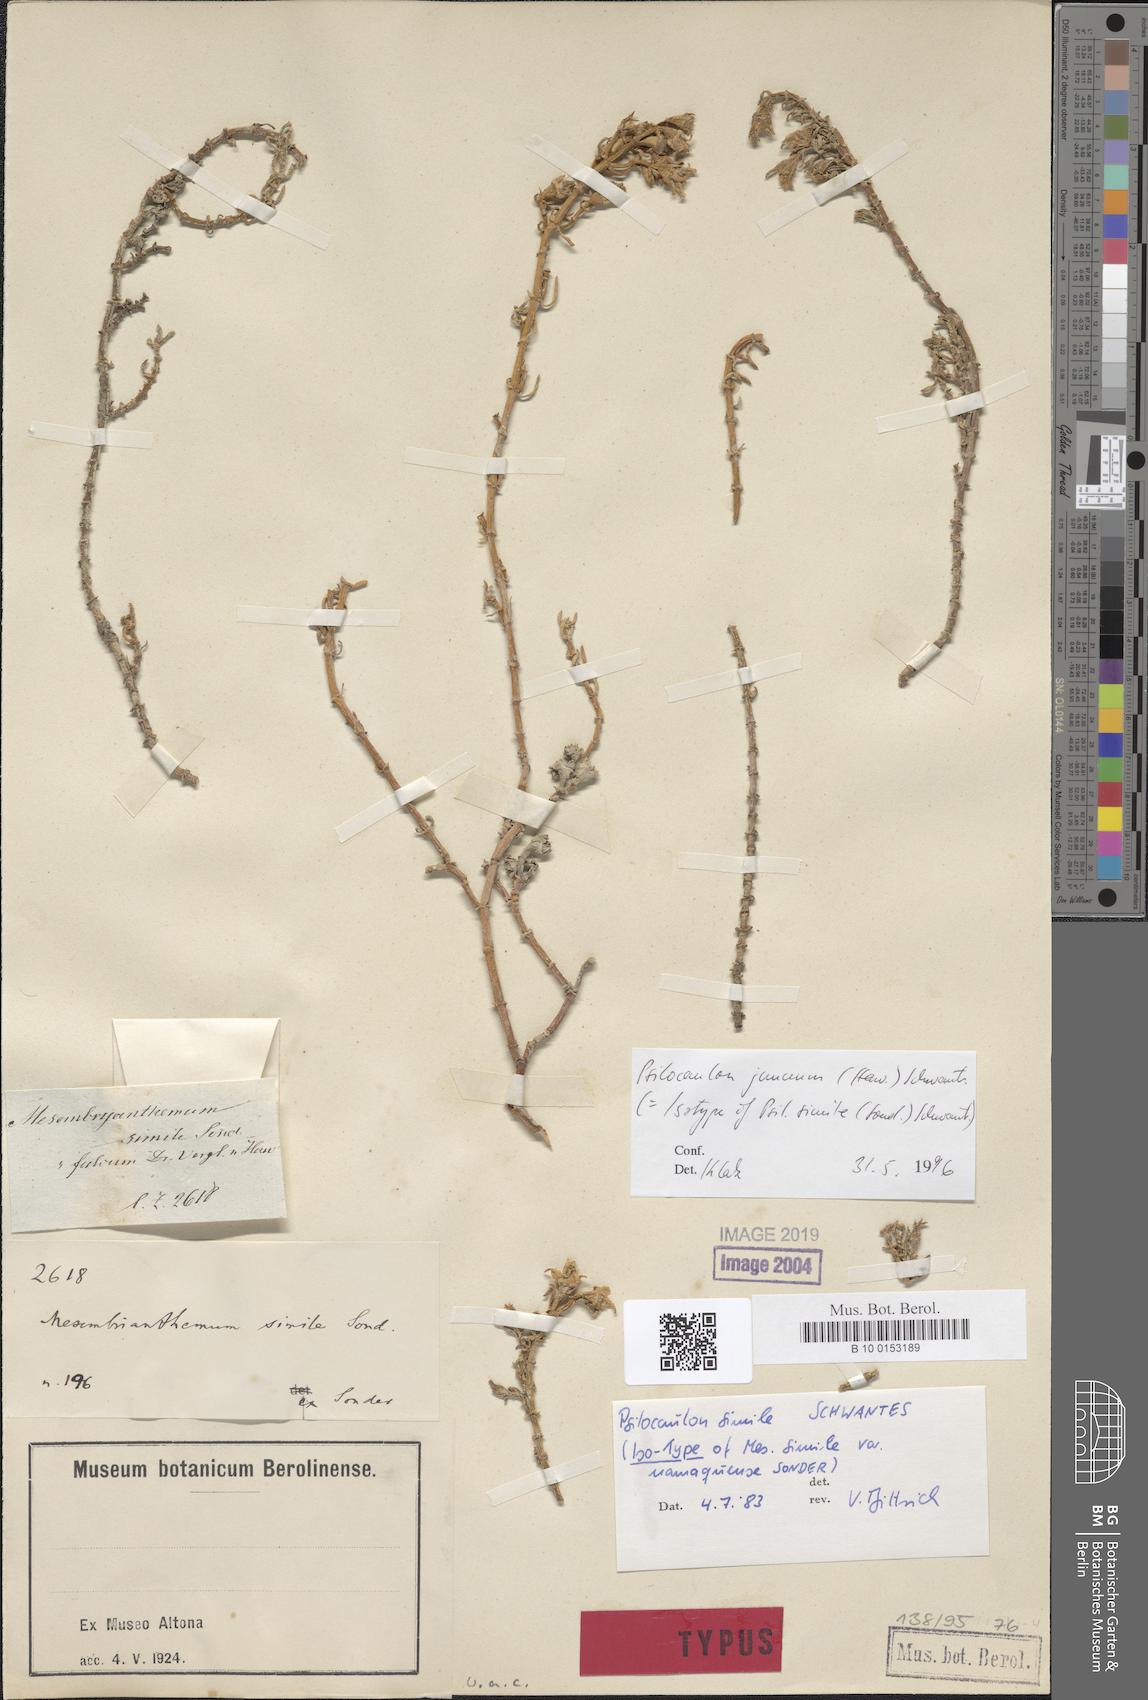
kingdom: Plantae
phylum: Tracheophyta
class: Magnoliopsida
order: Caryophyllales
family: Aizoaceae
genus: Mesembryanthemum
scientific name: Mesembryanthemum junceum
